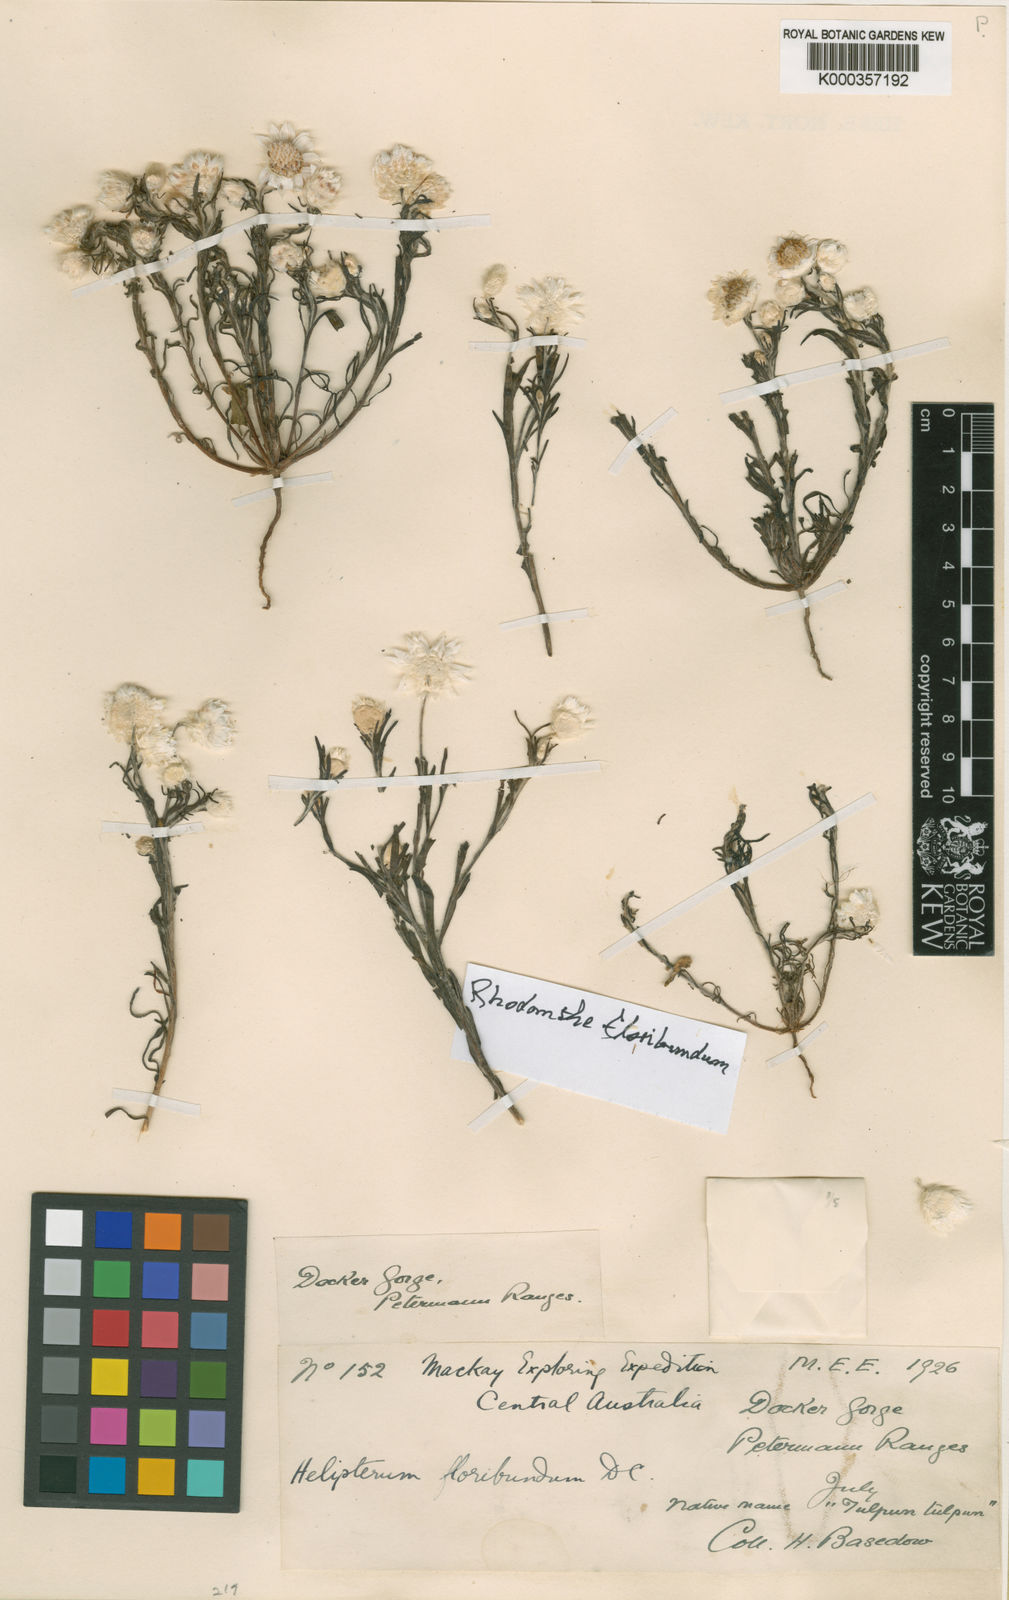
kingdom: Plantae
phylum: Tracheophyta
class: Magnoliopsida
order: Asterales
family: Asteraceae
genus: Rhodanthe
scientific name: Rhodanthe floribunda
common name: Flowery sunray
